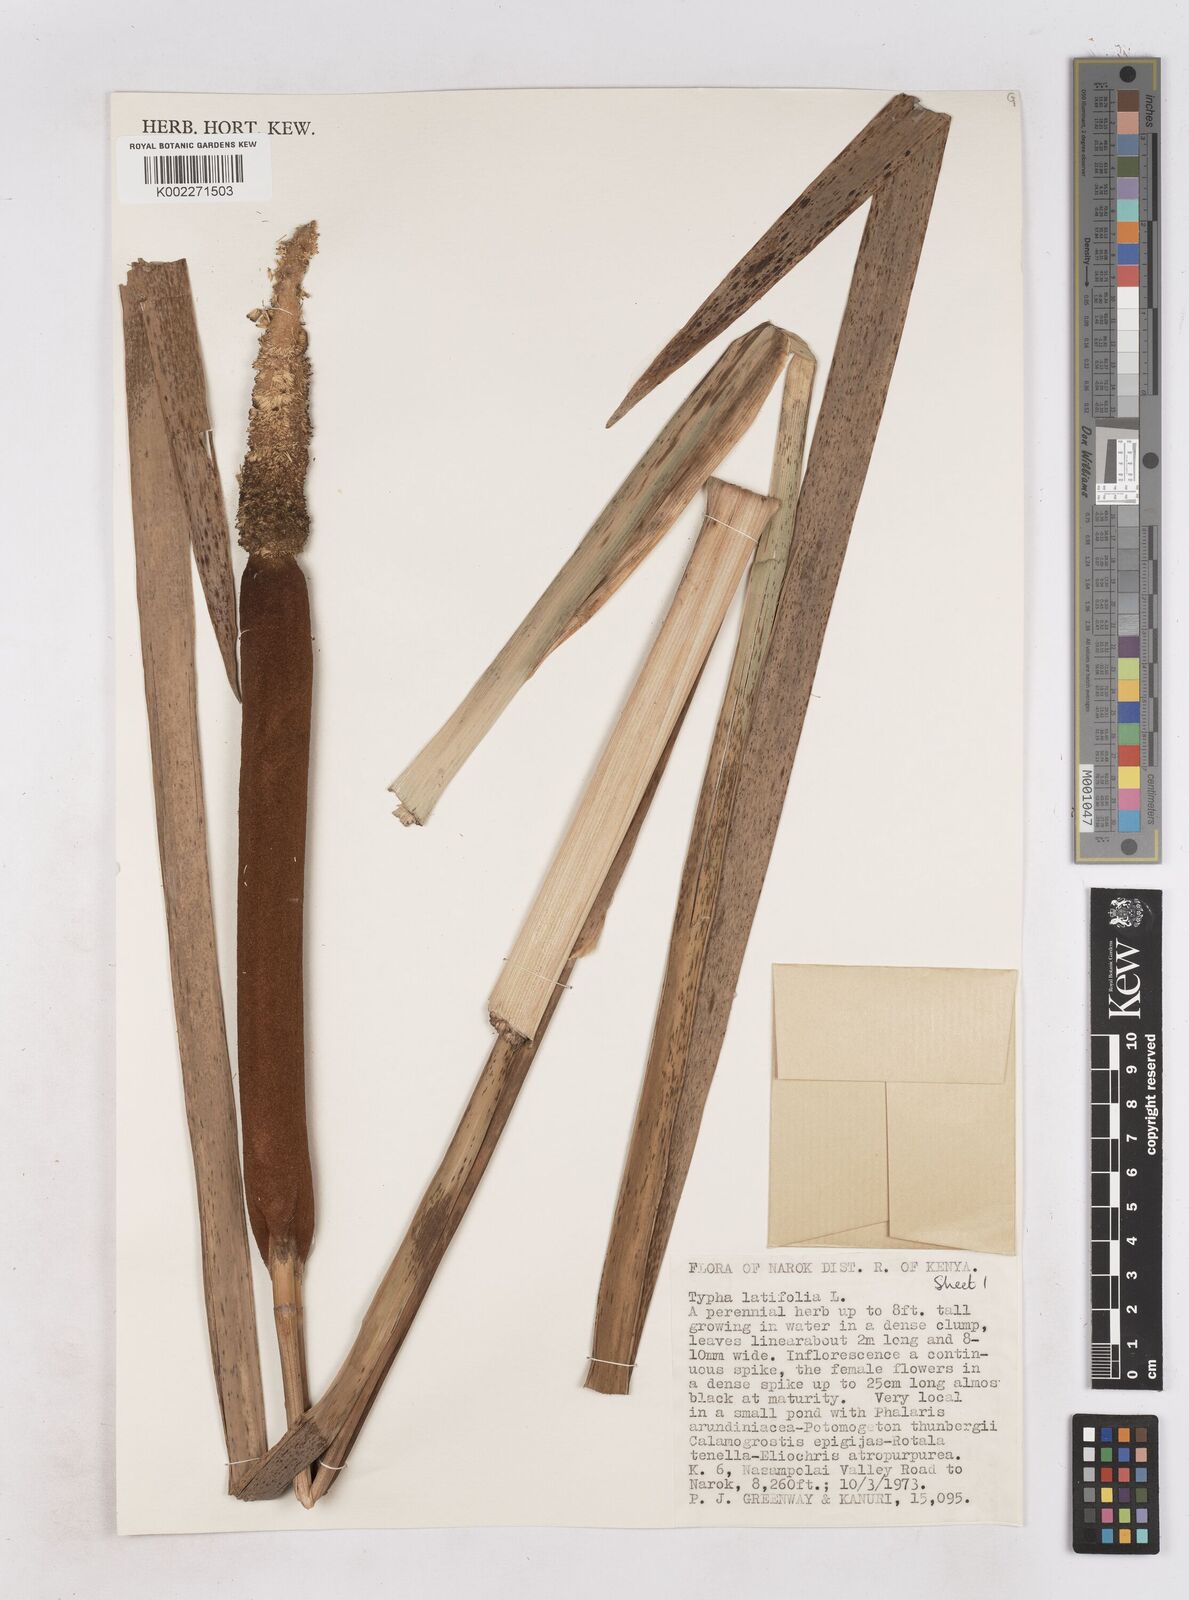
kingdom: Plantae
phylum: Tracheophyta
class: Liliopsida
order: Poales
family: Typhaceae
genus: Typha
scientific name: Typha latifolia
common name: Broadleaf cattail
